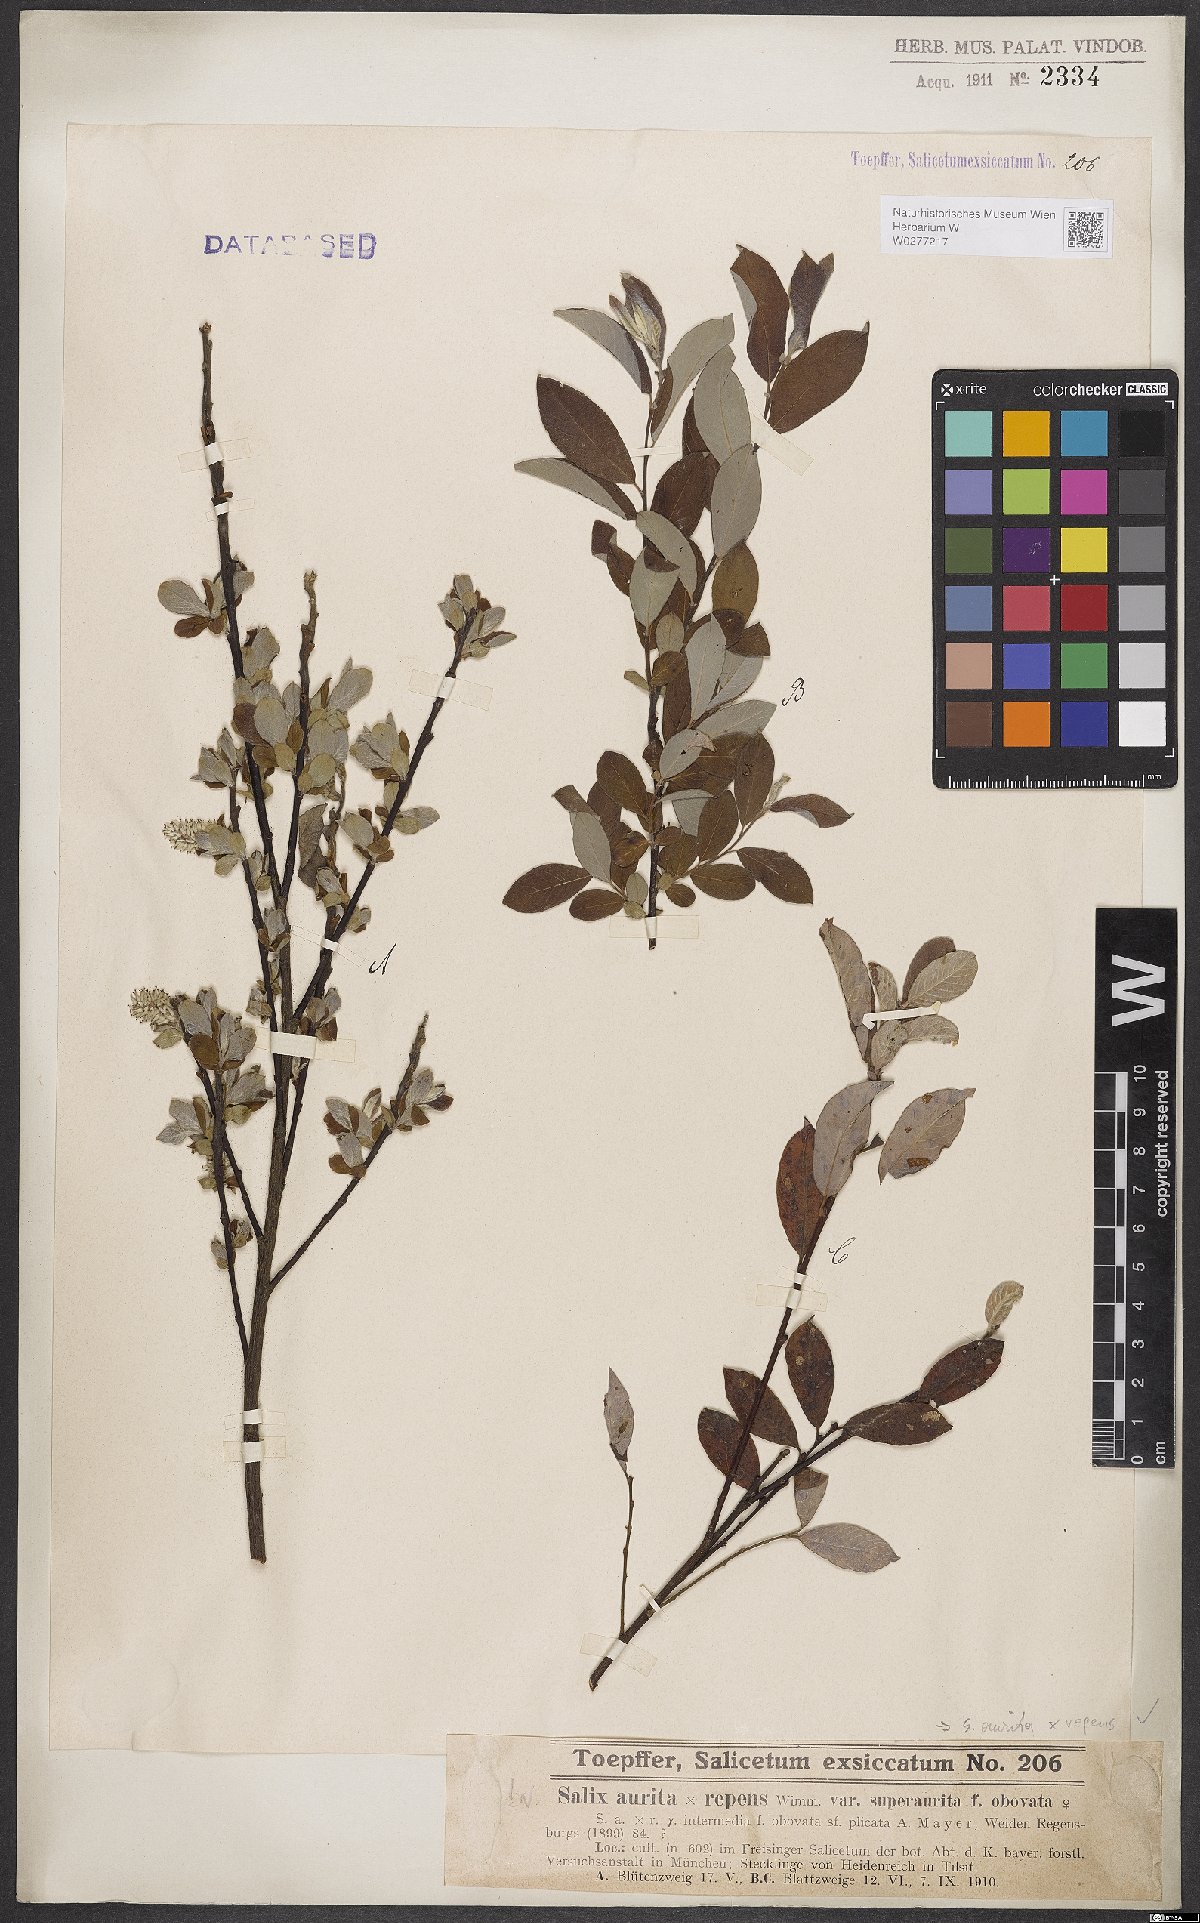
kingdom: Plantae
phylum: Tracheophyta
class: Magnoliopsida
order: Malpighiales
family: Salicaceae
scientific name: Salicaceae
